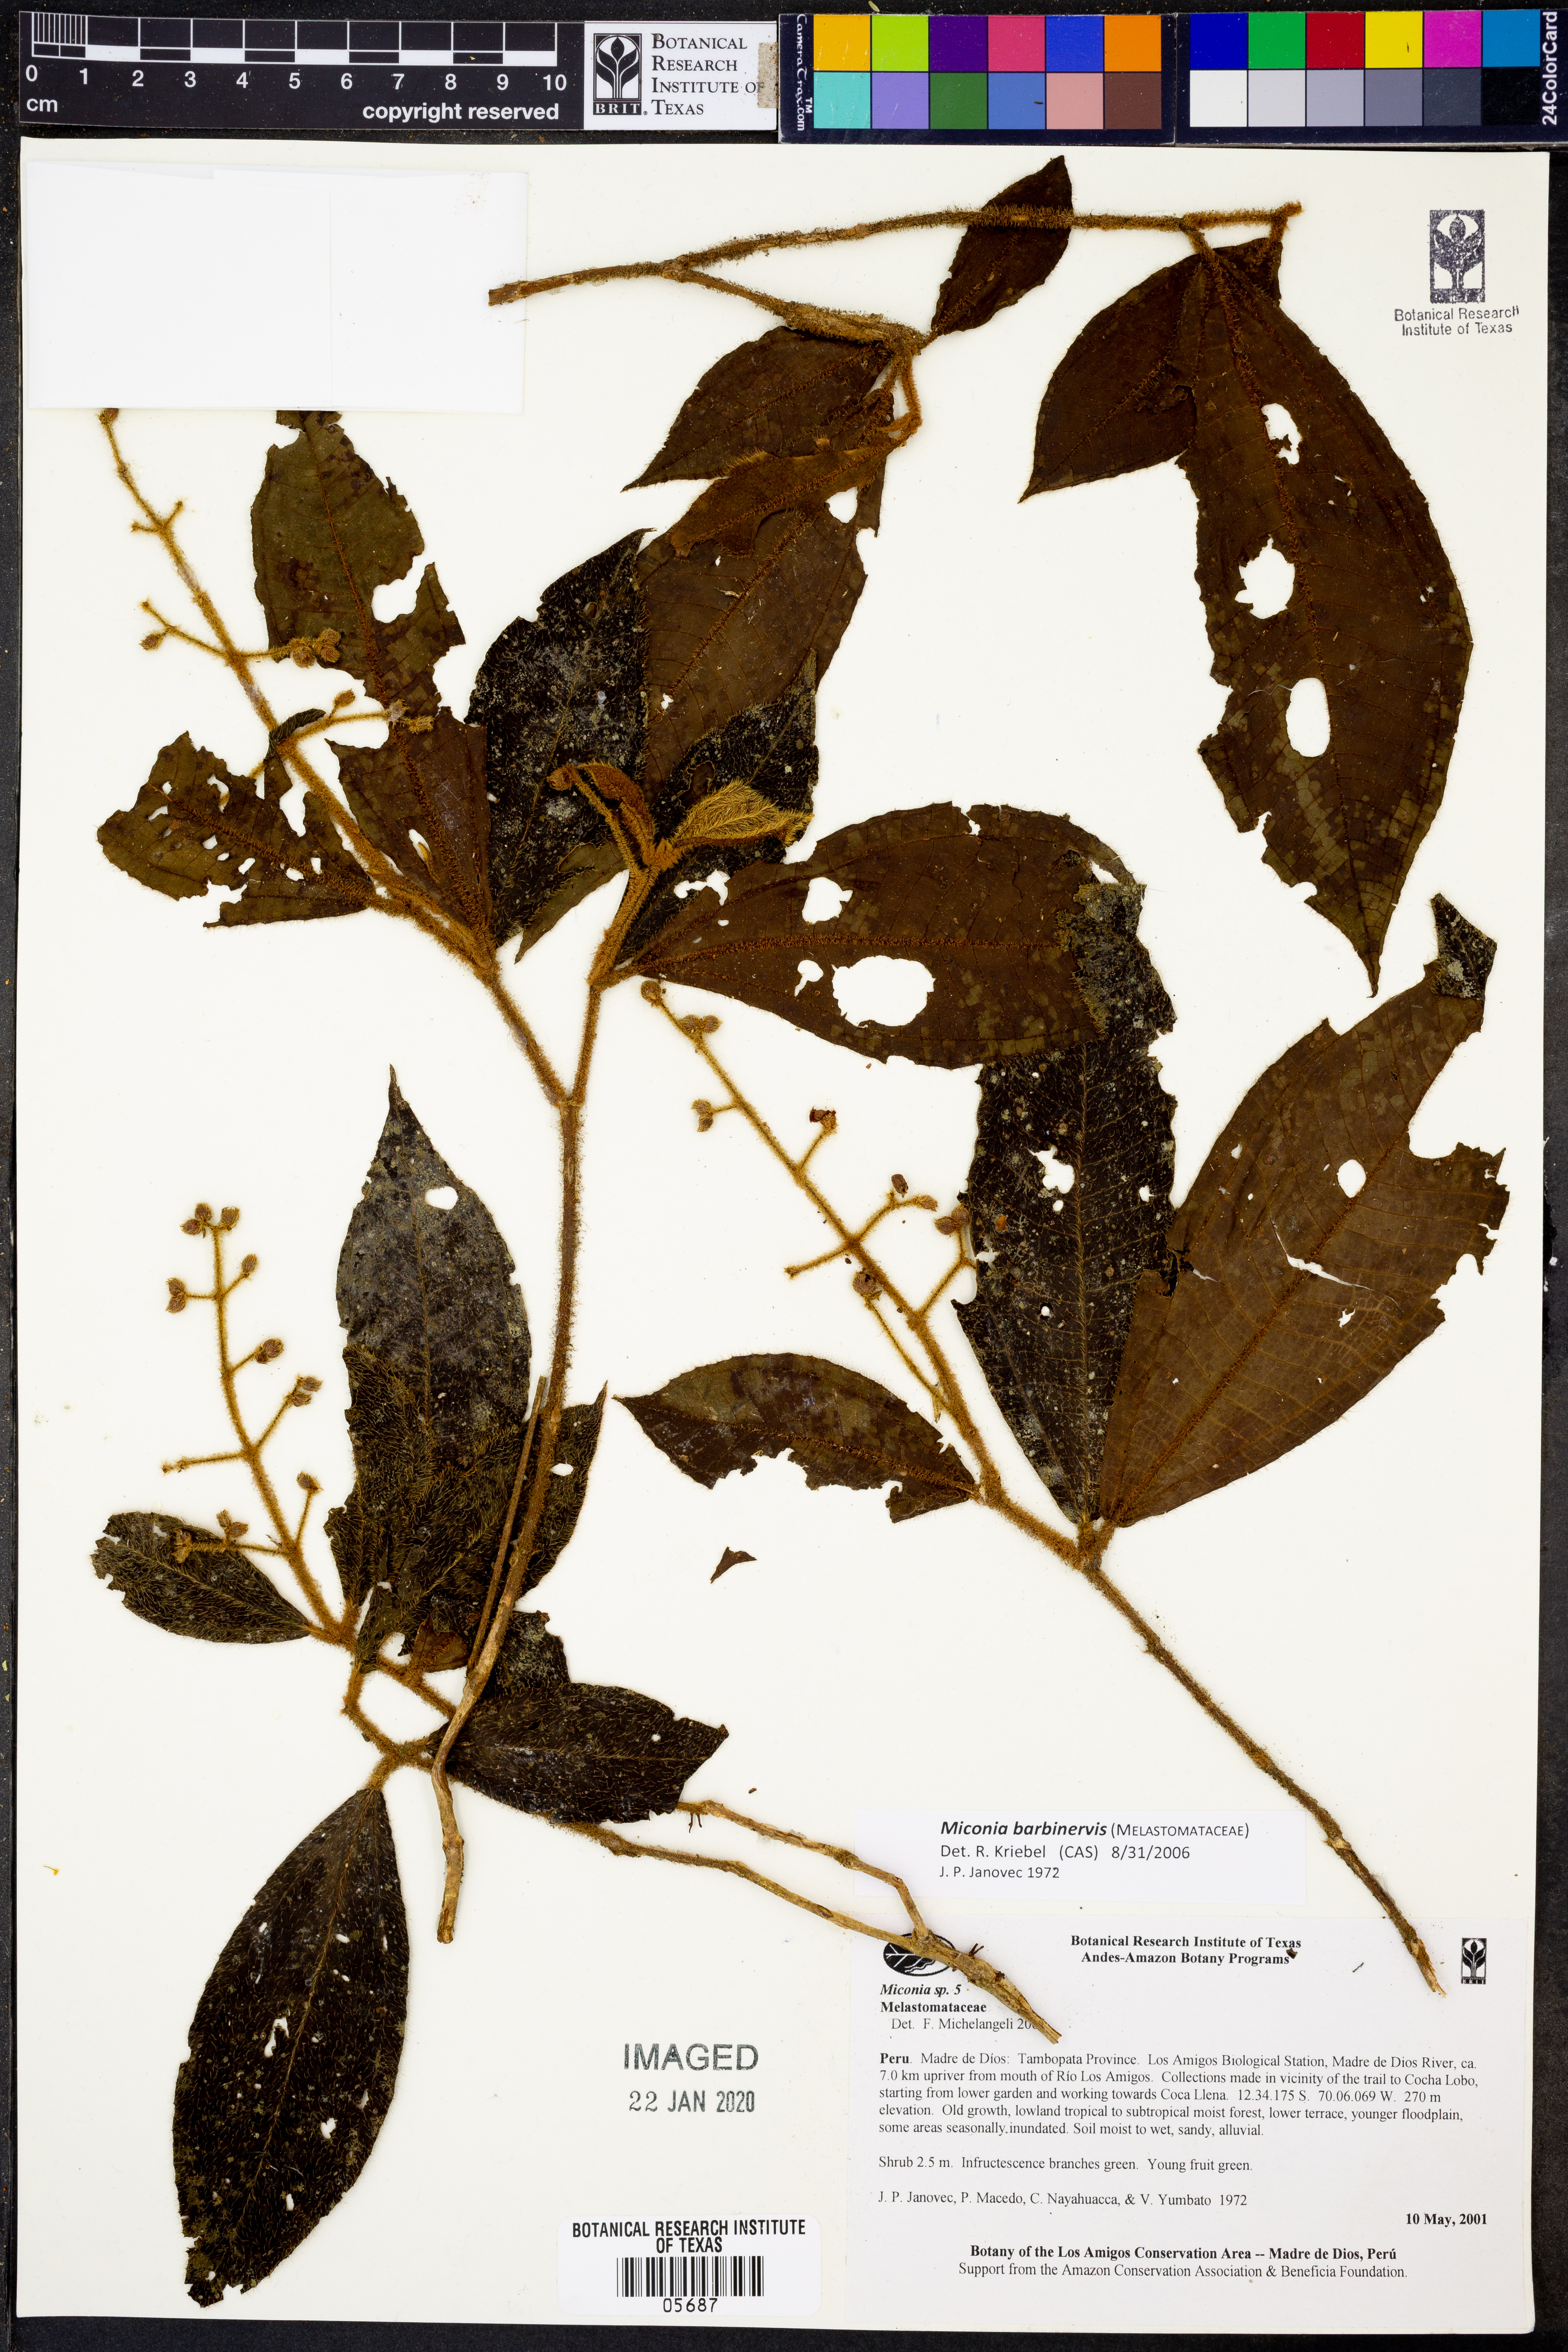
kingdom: Plantae
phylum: Tracheophyta
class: Magnoliopsida
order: Myrtales
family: Melastomataceae
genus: Miconia
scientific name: Miconia barbinervis
